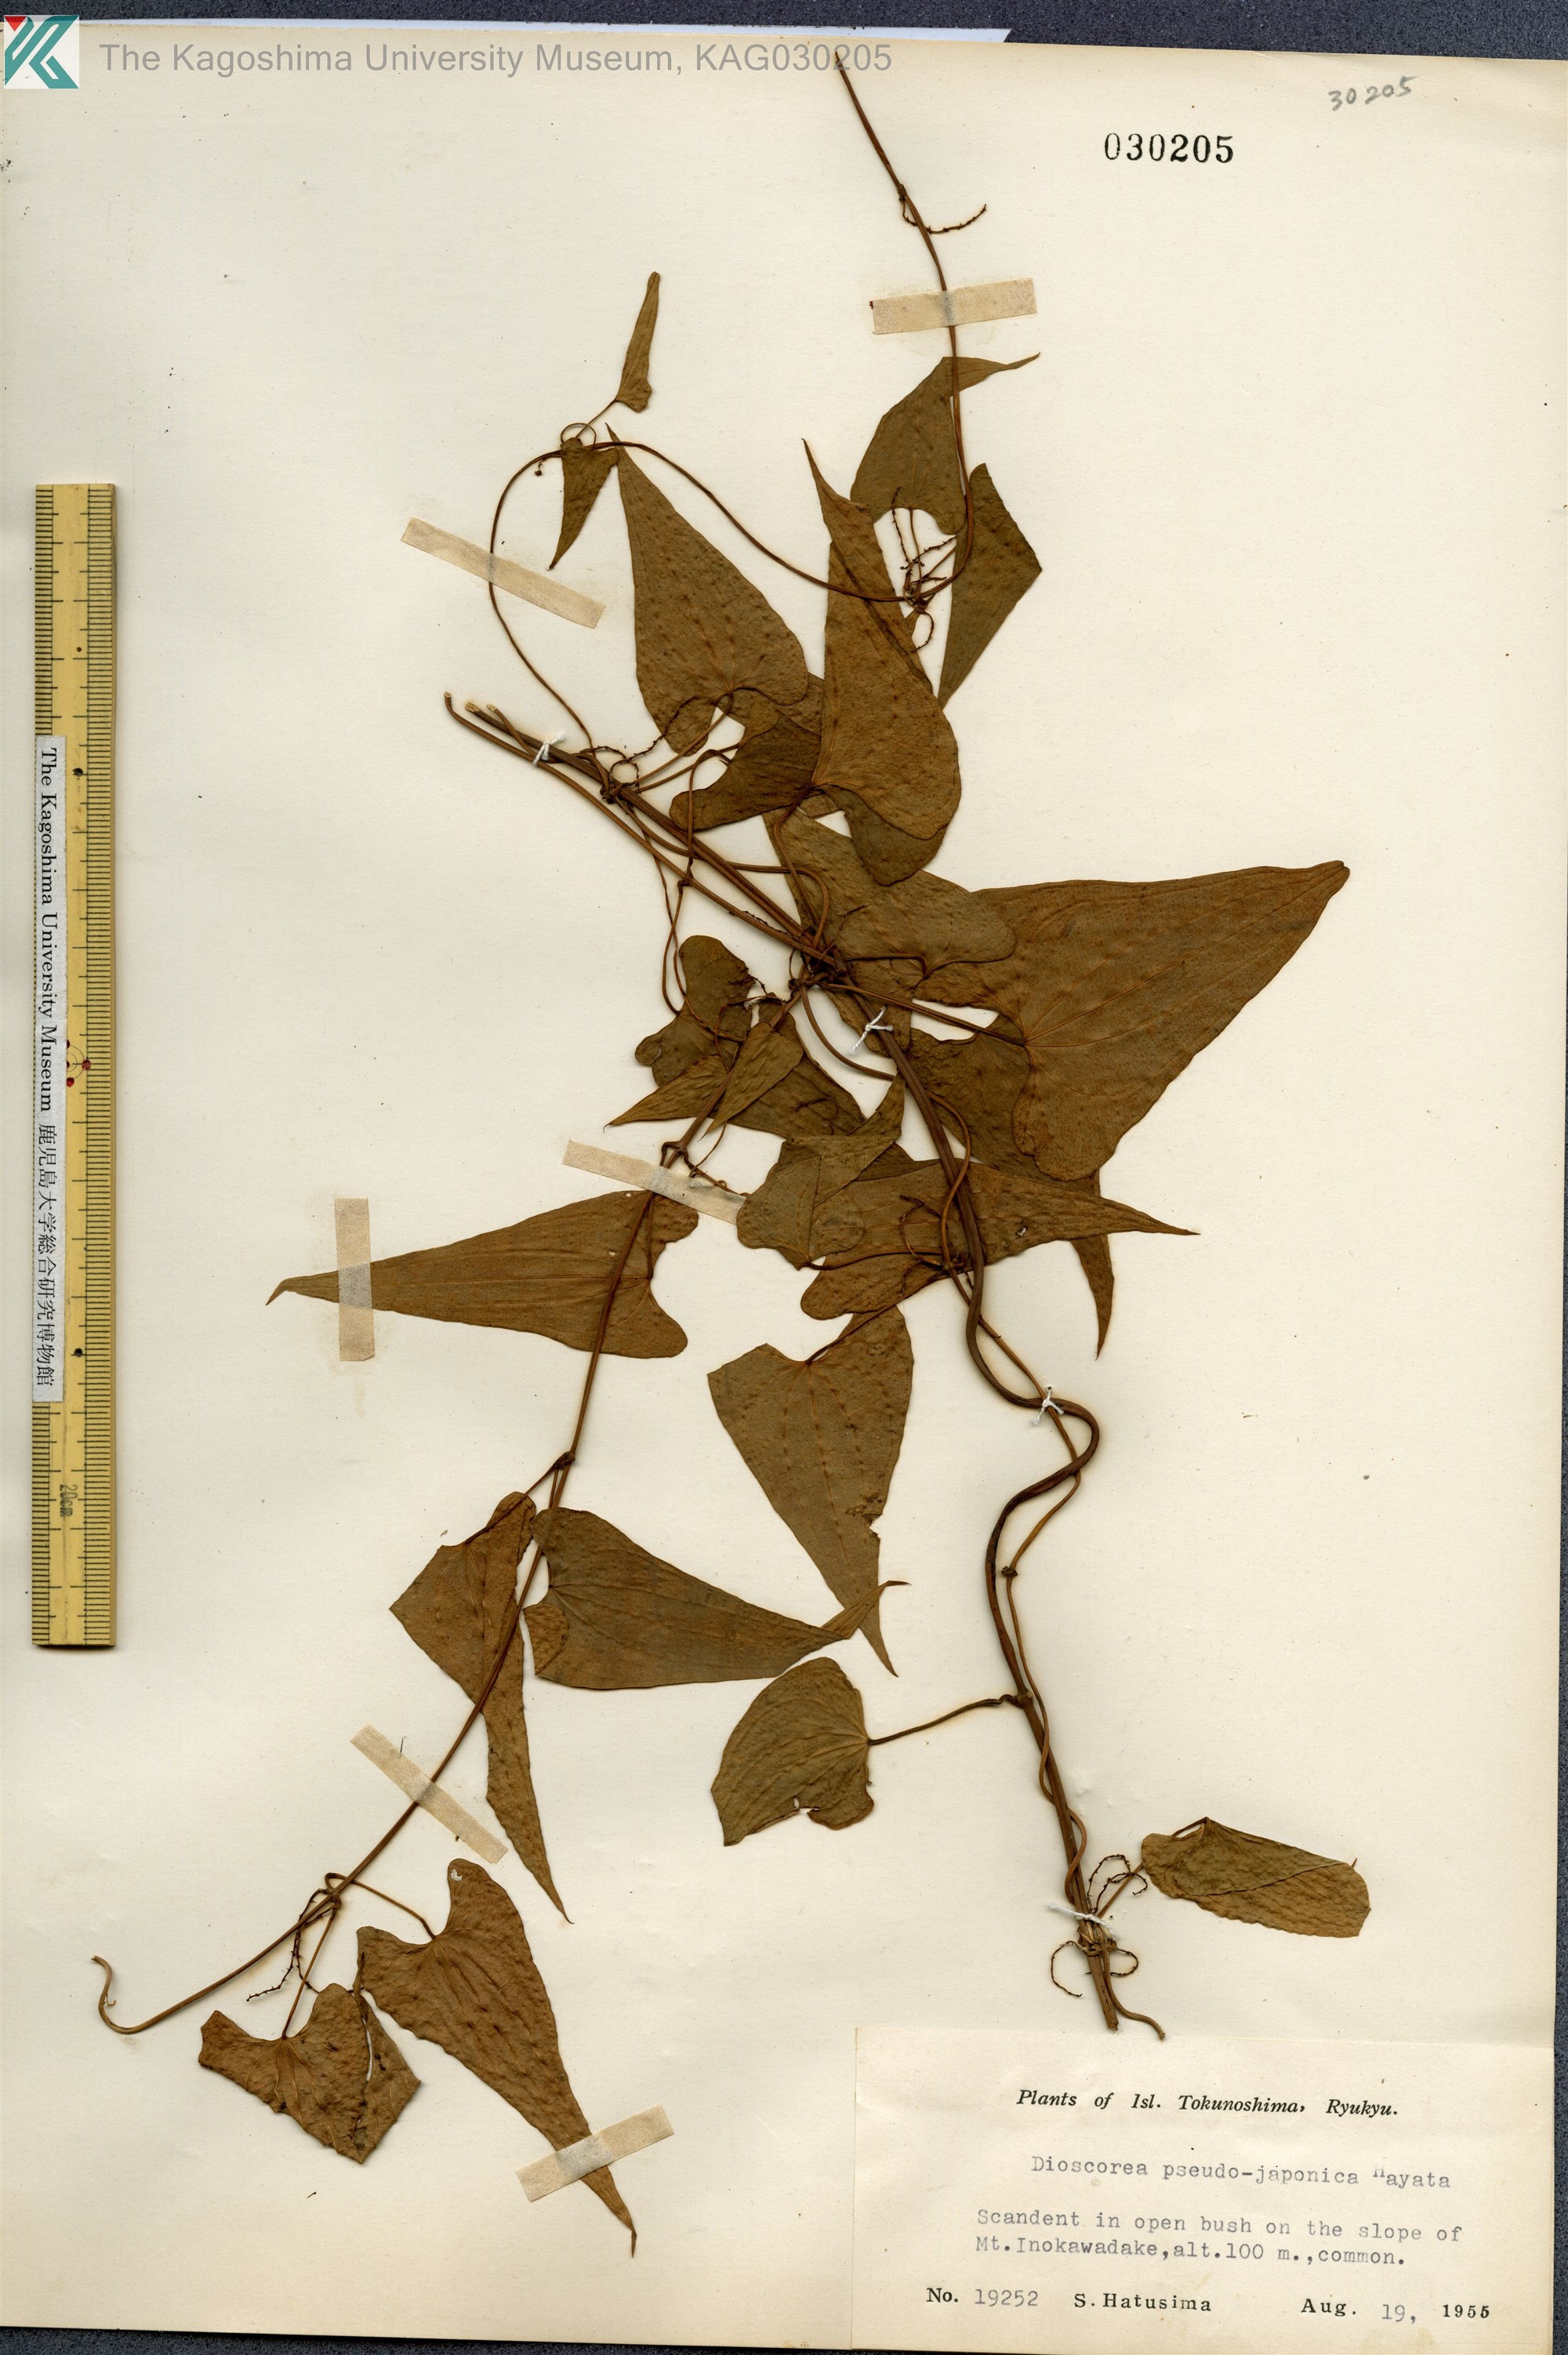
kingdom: Plantae
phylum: Tracheophyta
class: Liliopsida
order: Dioscoreales
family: Dioscoreaceae
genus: Dioscorea
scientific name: Dioscorea pseudojaponica
